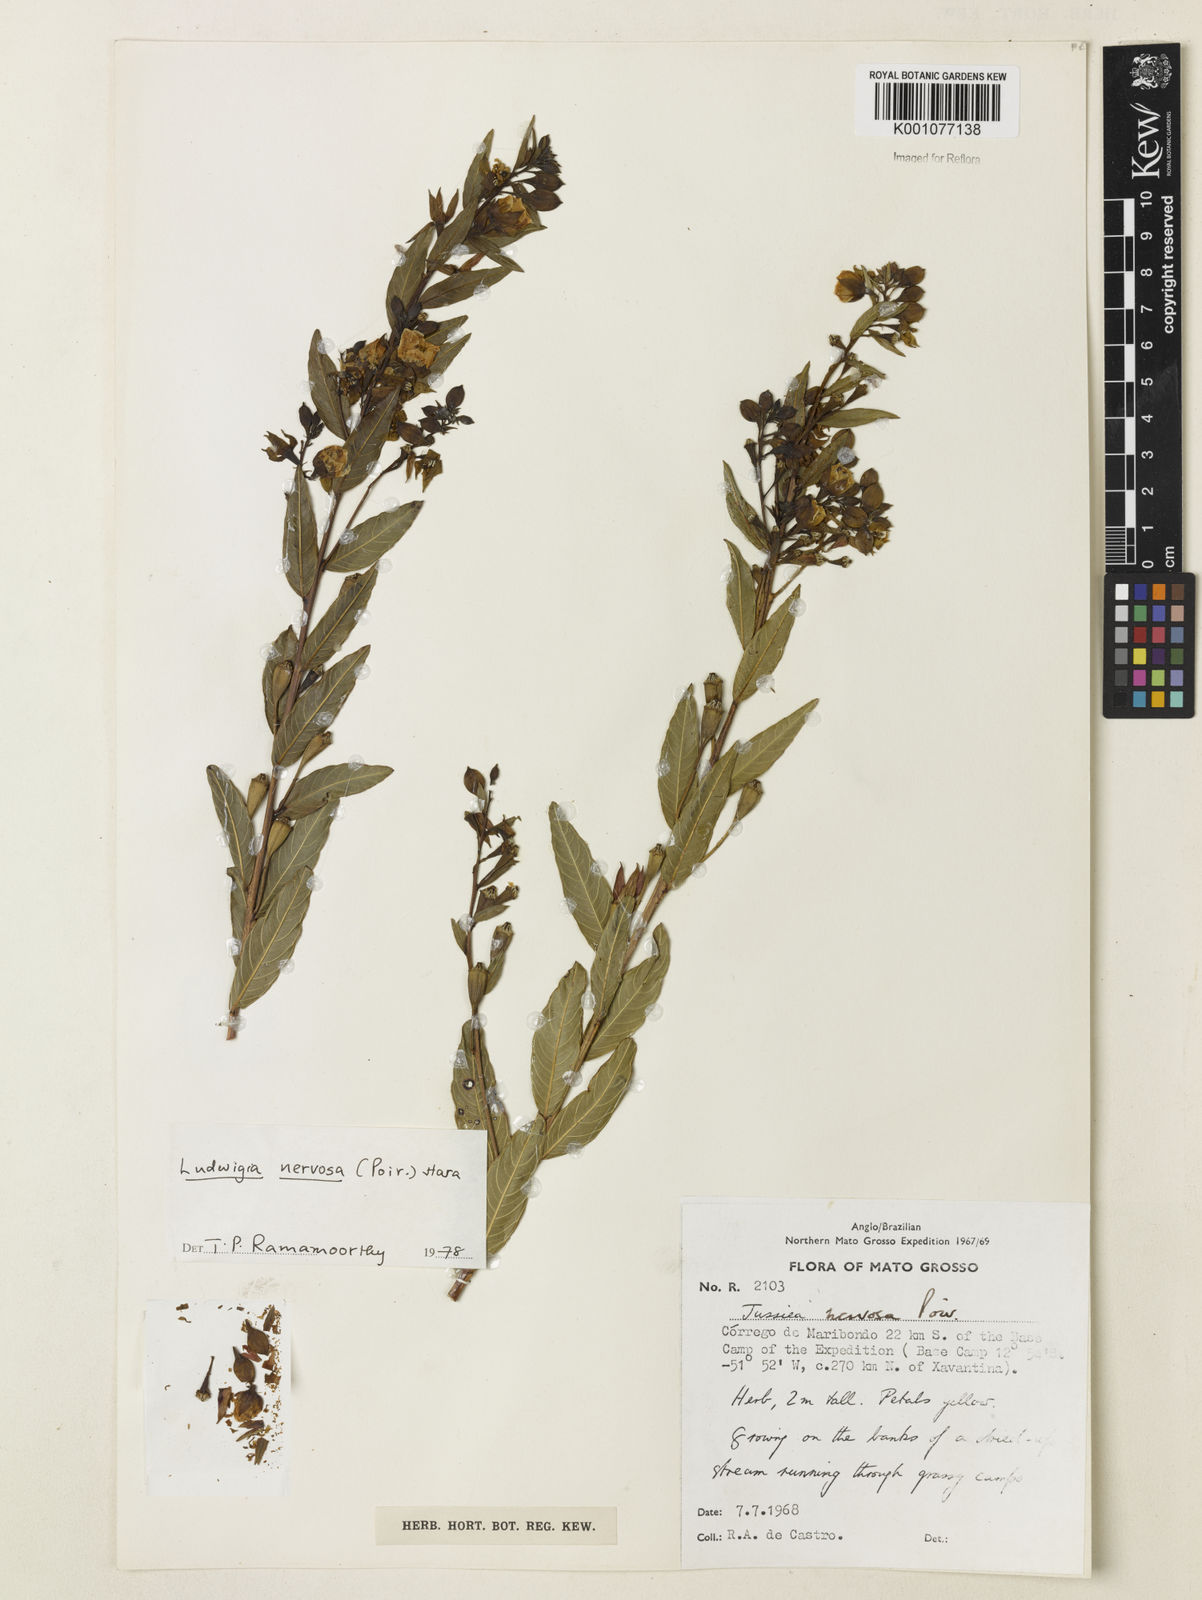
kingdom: Plantae
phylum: Tracheophyta
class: Magnoliopsida
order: Myrtales
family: Onagraceae
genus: Ludwigia
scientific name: Ludwigia nervosa
